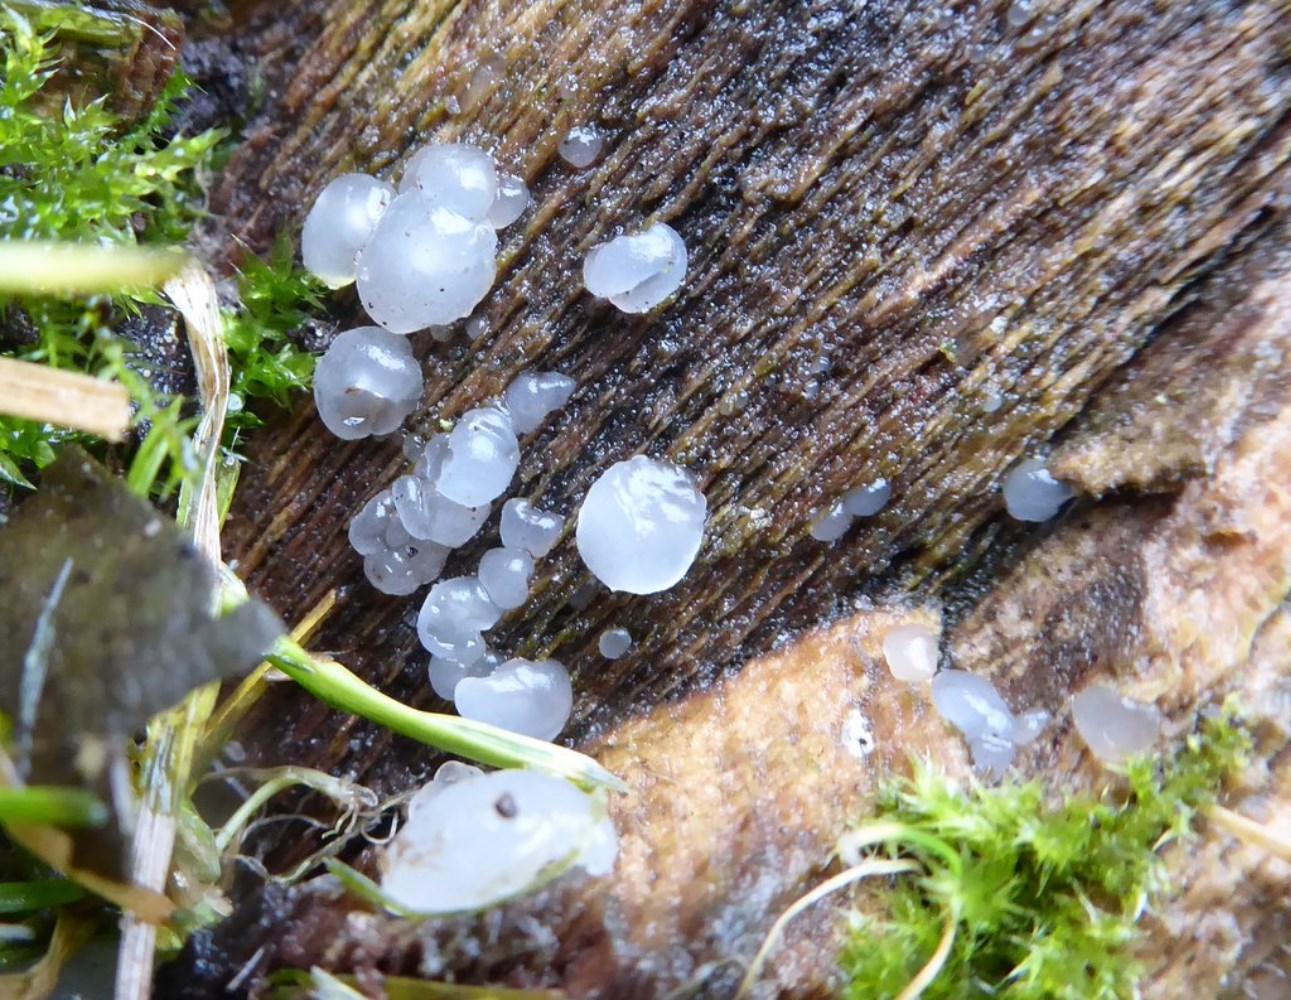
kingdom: Fungi
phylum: Basidiomycota
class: Agaricomycetes
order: Auriculariales
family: Hyaloriaceae
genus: Myxarium
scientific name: Myxarium nucleatum
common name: klar bævretop
